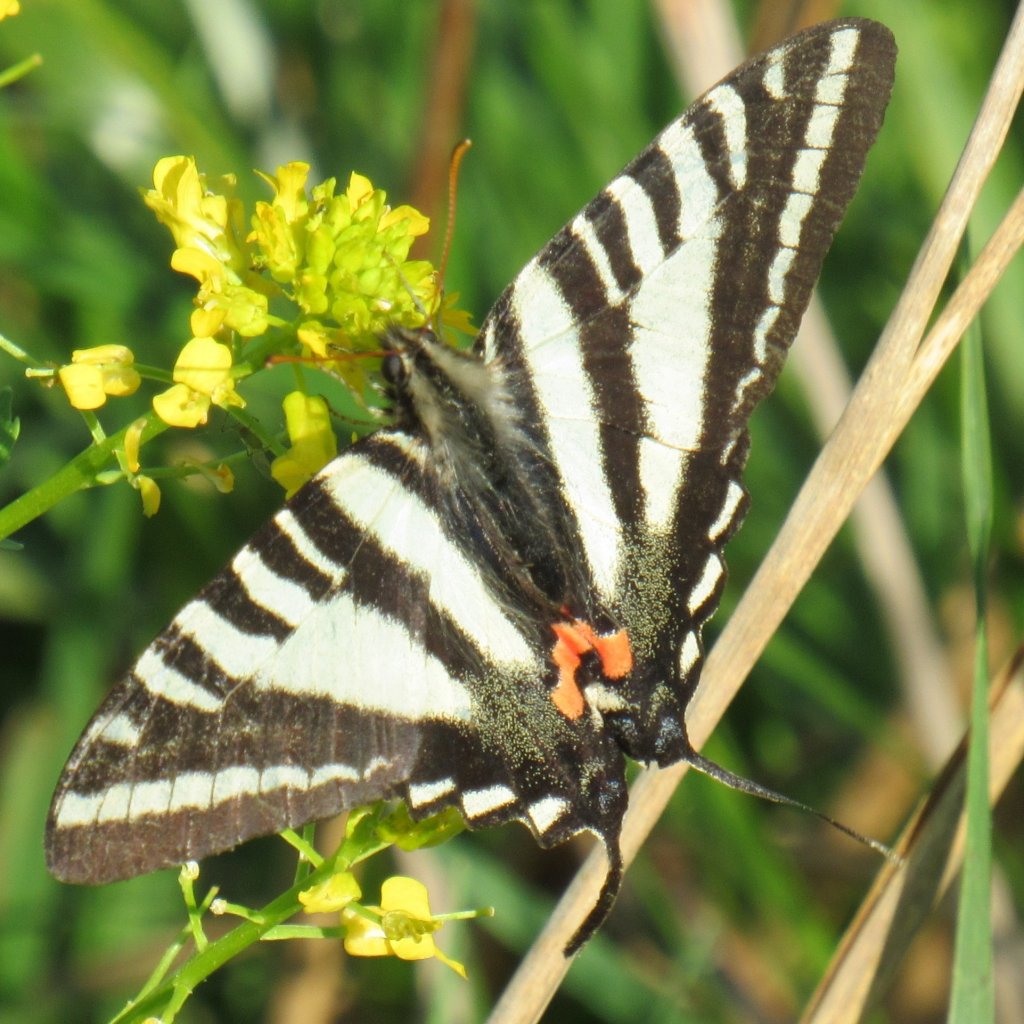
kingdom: Animalia
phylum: Arthropoda
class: Insecta
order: Lepidoptera
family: Papilionidae
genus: Protographium
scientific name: Protographium marcellus
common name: Zebra Swallowtail
